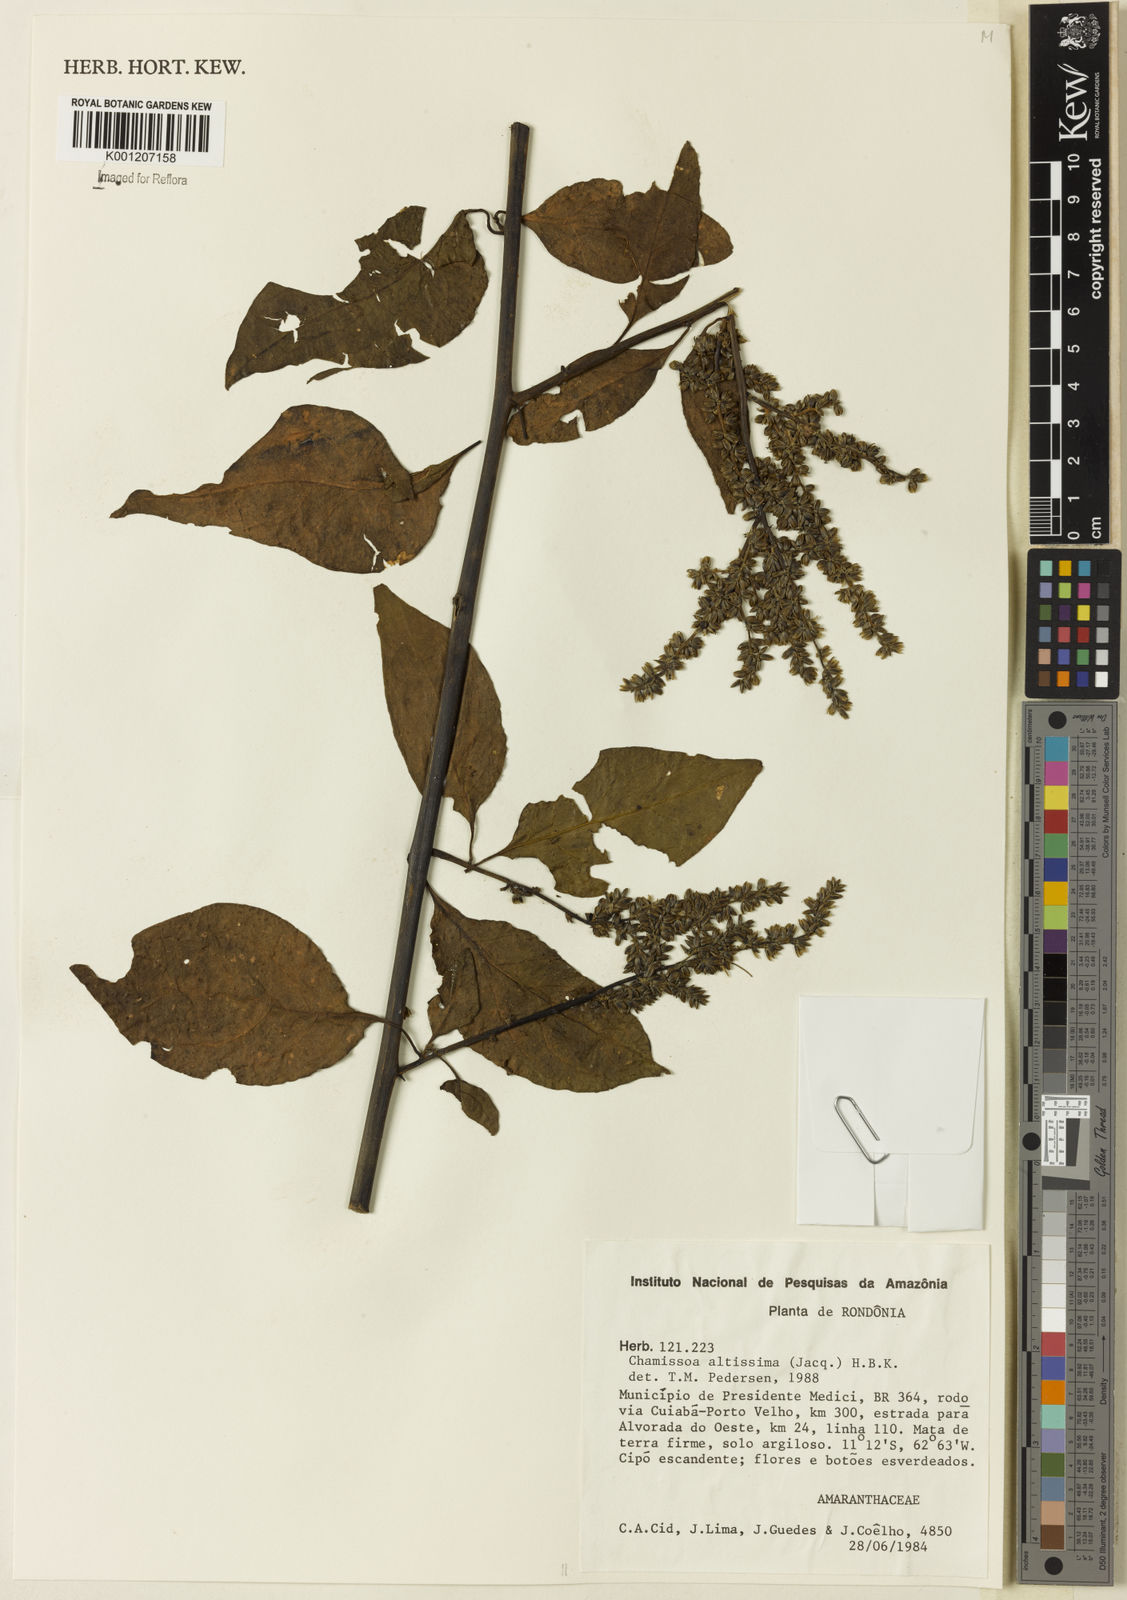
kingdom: Plantae
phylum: Tracheophyta
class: Magnoliopsida
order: Caryophyllales
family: Amaranthaceae
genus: Chamissoa
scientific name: Chamissoa altissima
